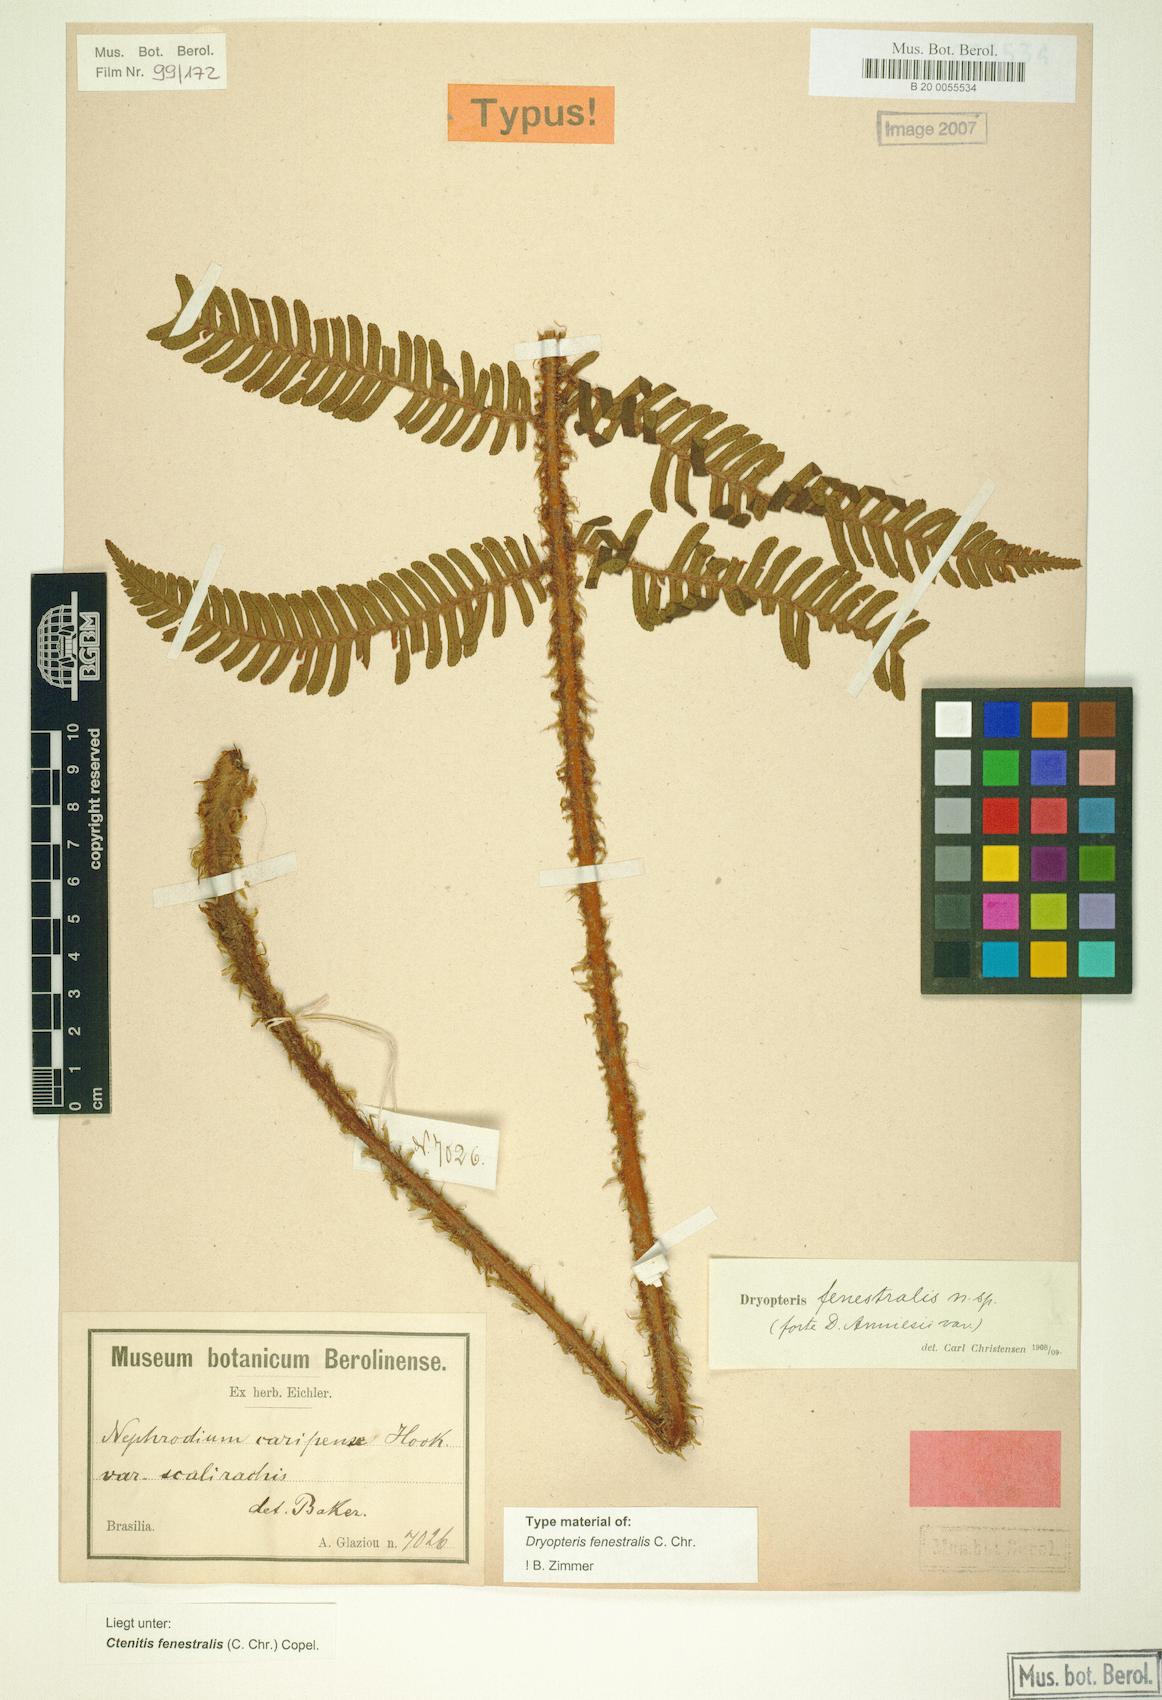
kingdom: Plantae
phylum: Tracheophyta
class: Polypodiopsida
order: Polypodiales
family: Dryopteridaceae
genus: Ctenitis
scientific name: Ctenitis fenestralis
